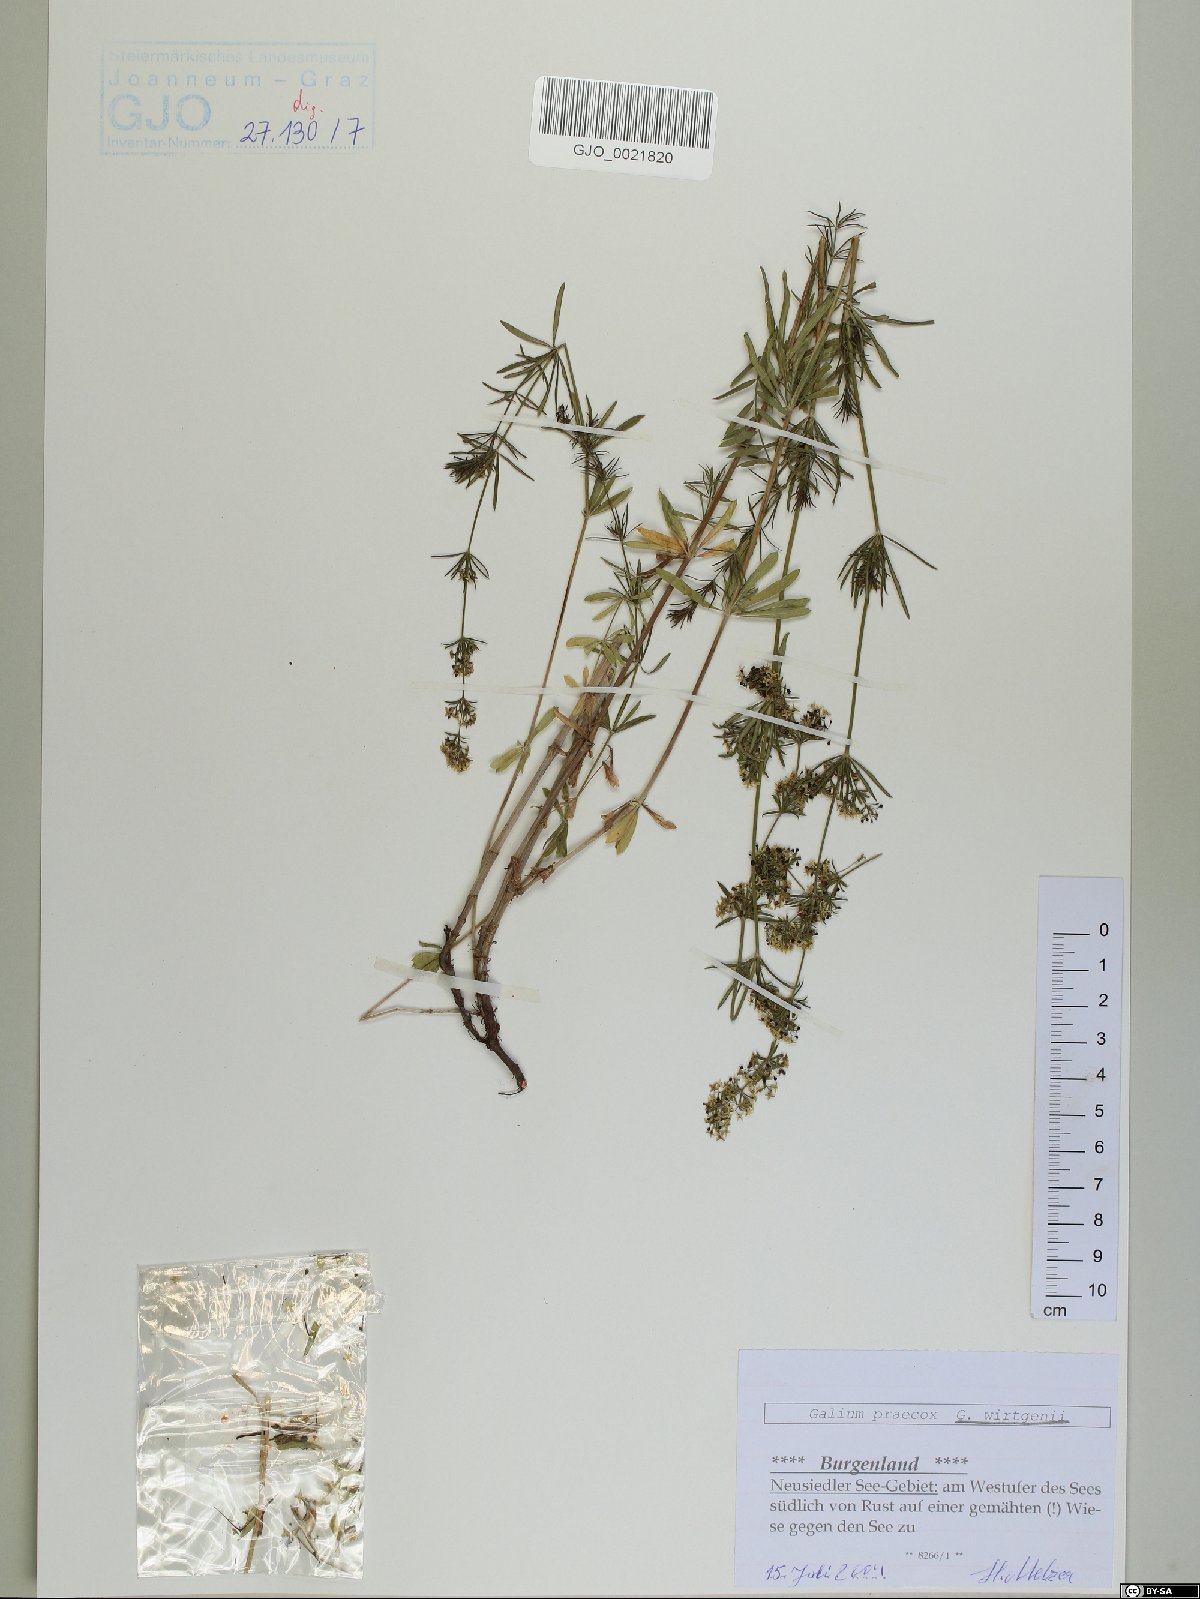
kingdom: Plantae
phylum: Tracheophyta
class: Magnoliopsida
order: Gentianales
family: Rubiaceae
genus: Galium
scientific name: Galium verum
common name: Lady's bedstraw
